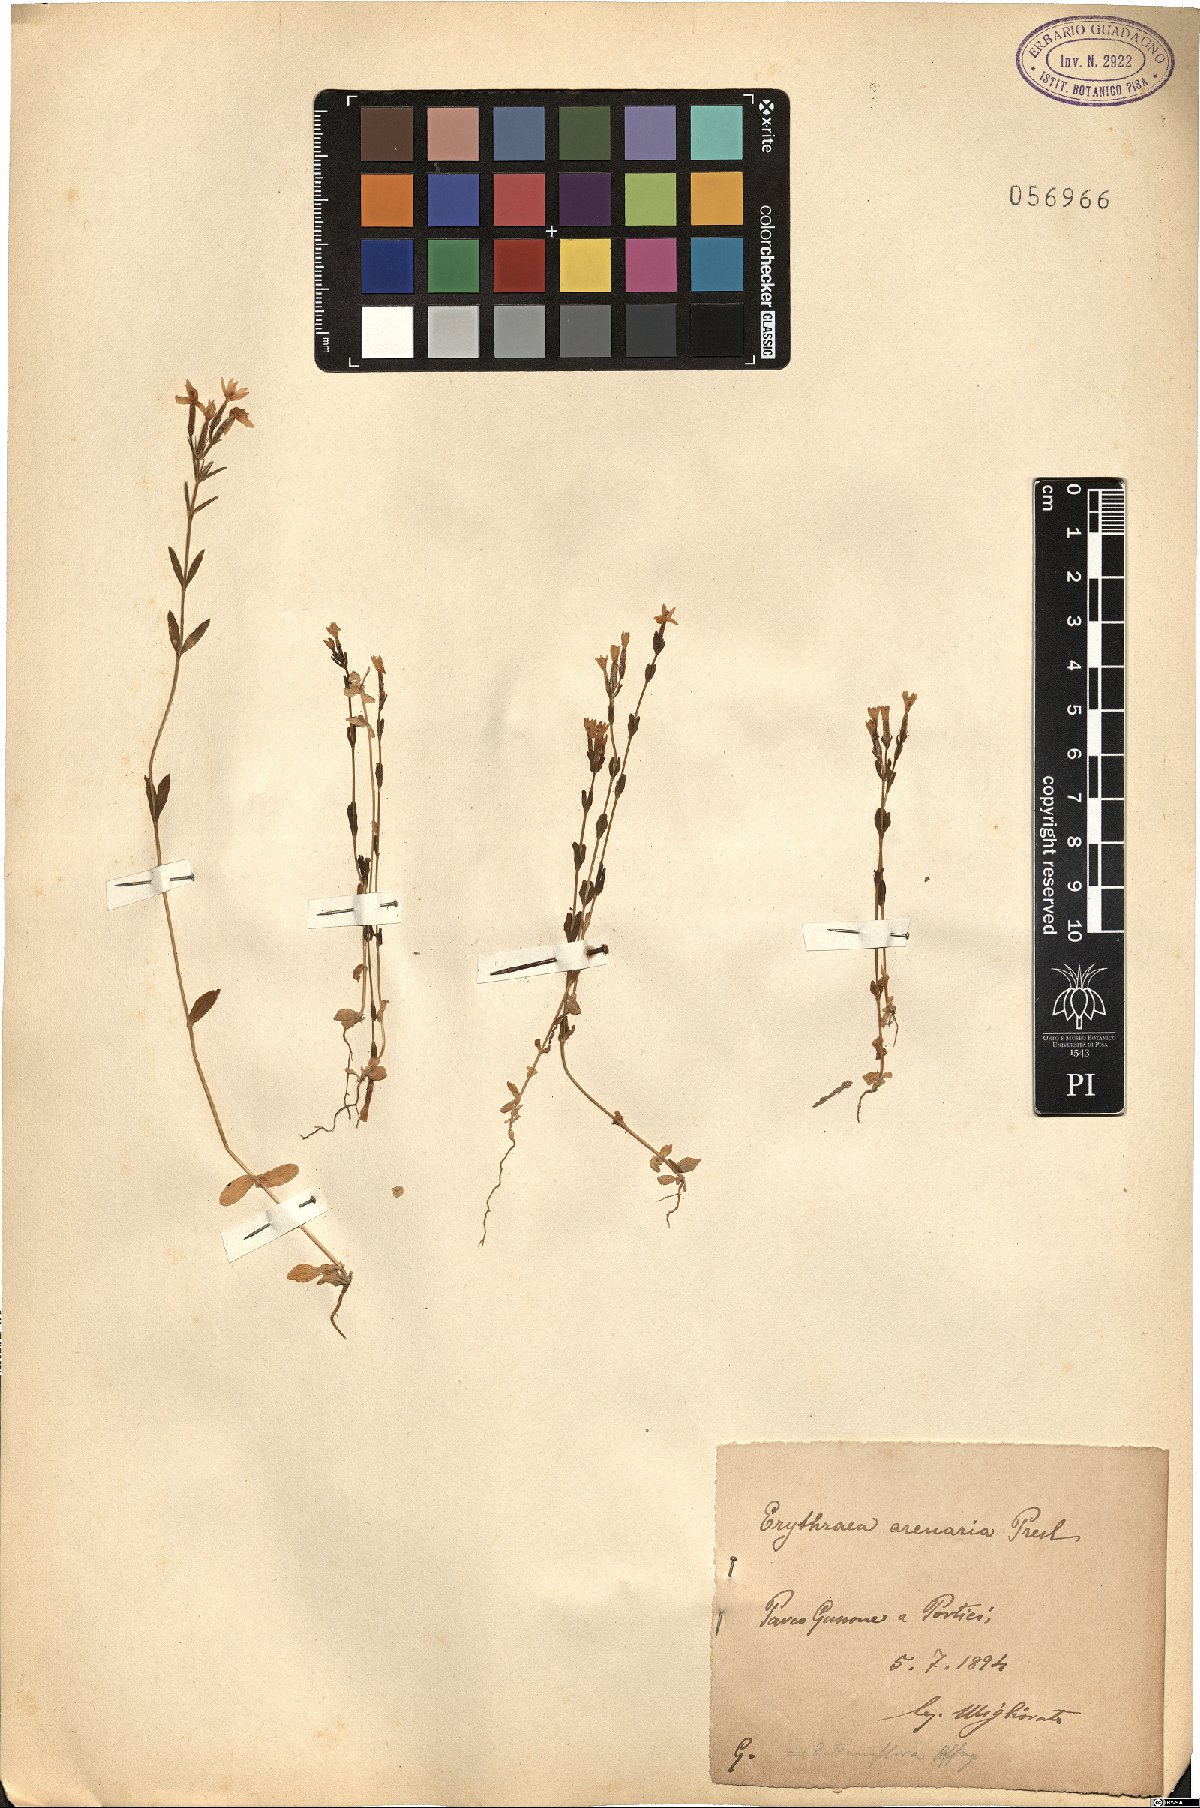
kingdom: Plantae
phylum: Tracheophyta
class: Magnoliopsida
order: Gentianales
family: Gentianaceae
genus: Centaurium
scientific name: Centaurium pulchellum
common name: Lesser centaury
